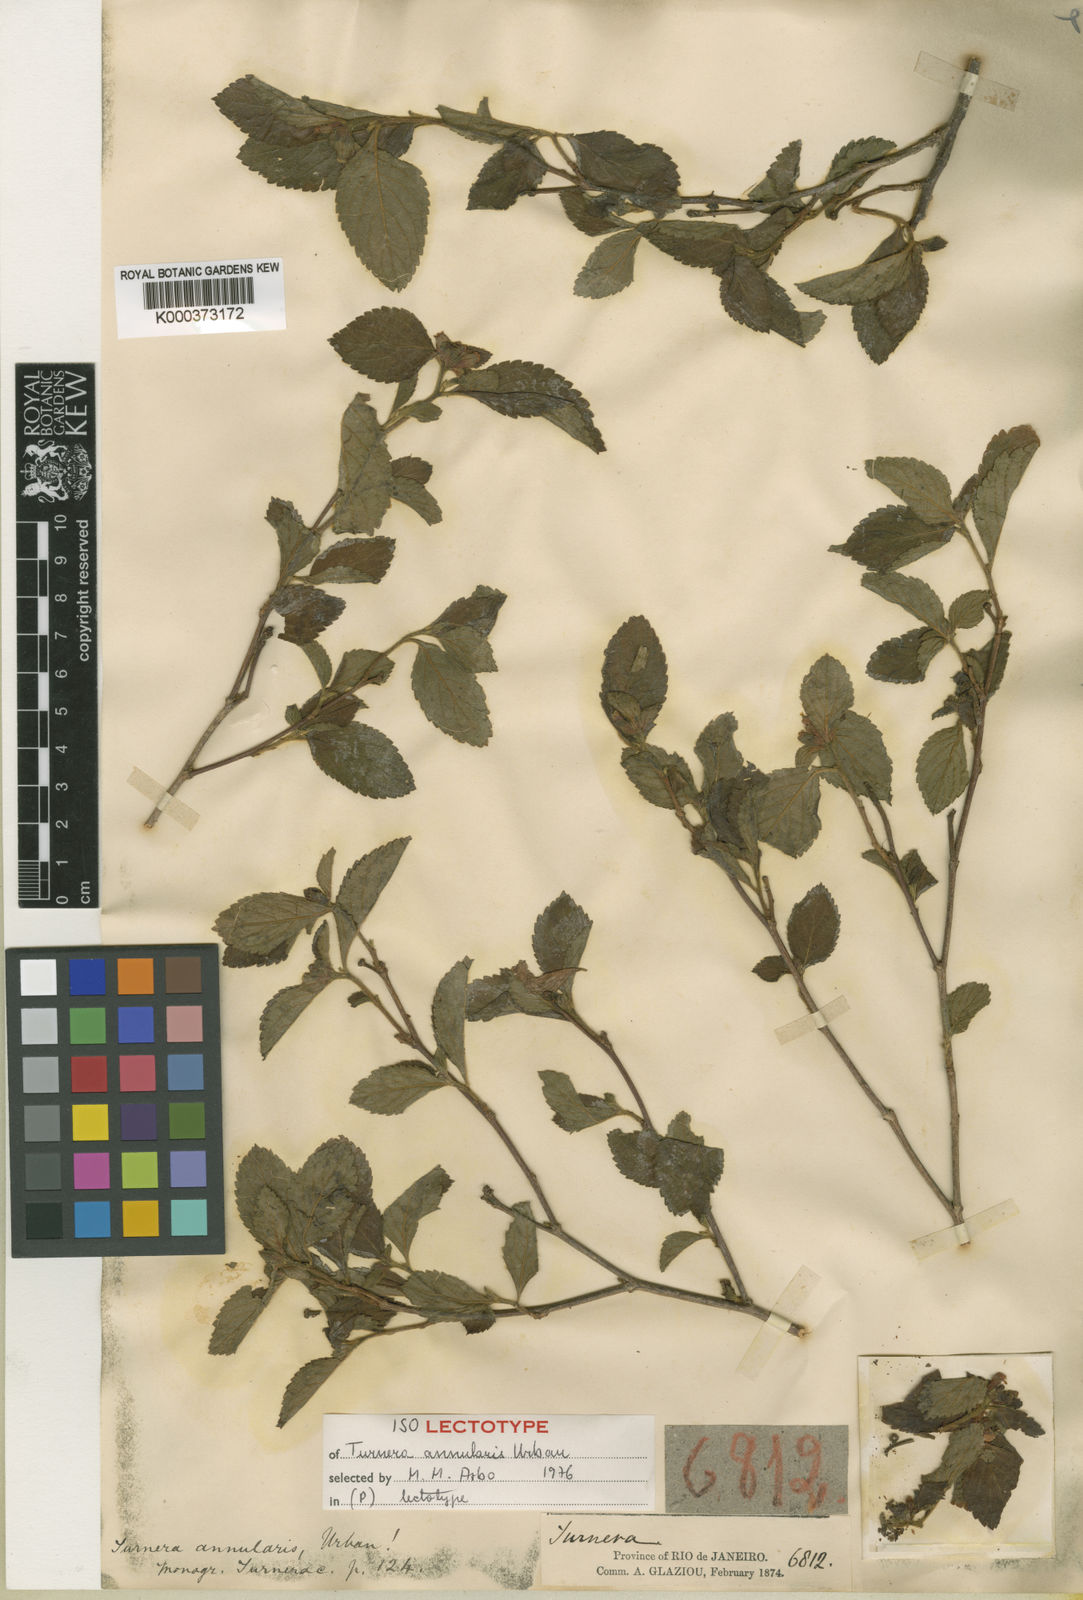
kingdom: Plantae
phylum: Tracheophyta
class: Magnoliopsida
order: Malpighiales
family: Turneraceae
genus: Oxossia
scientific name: Oxossia annularis
